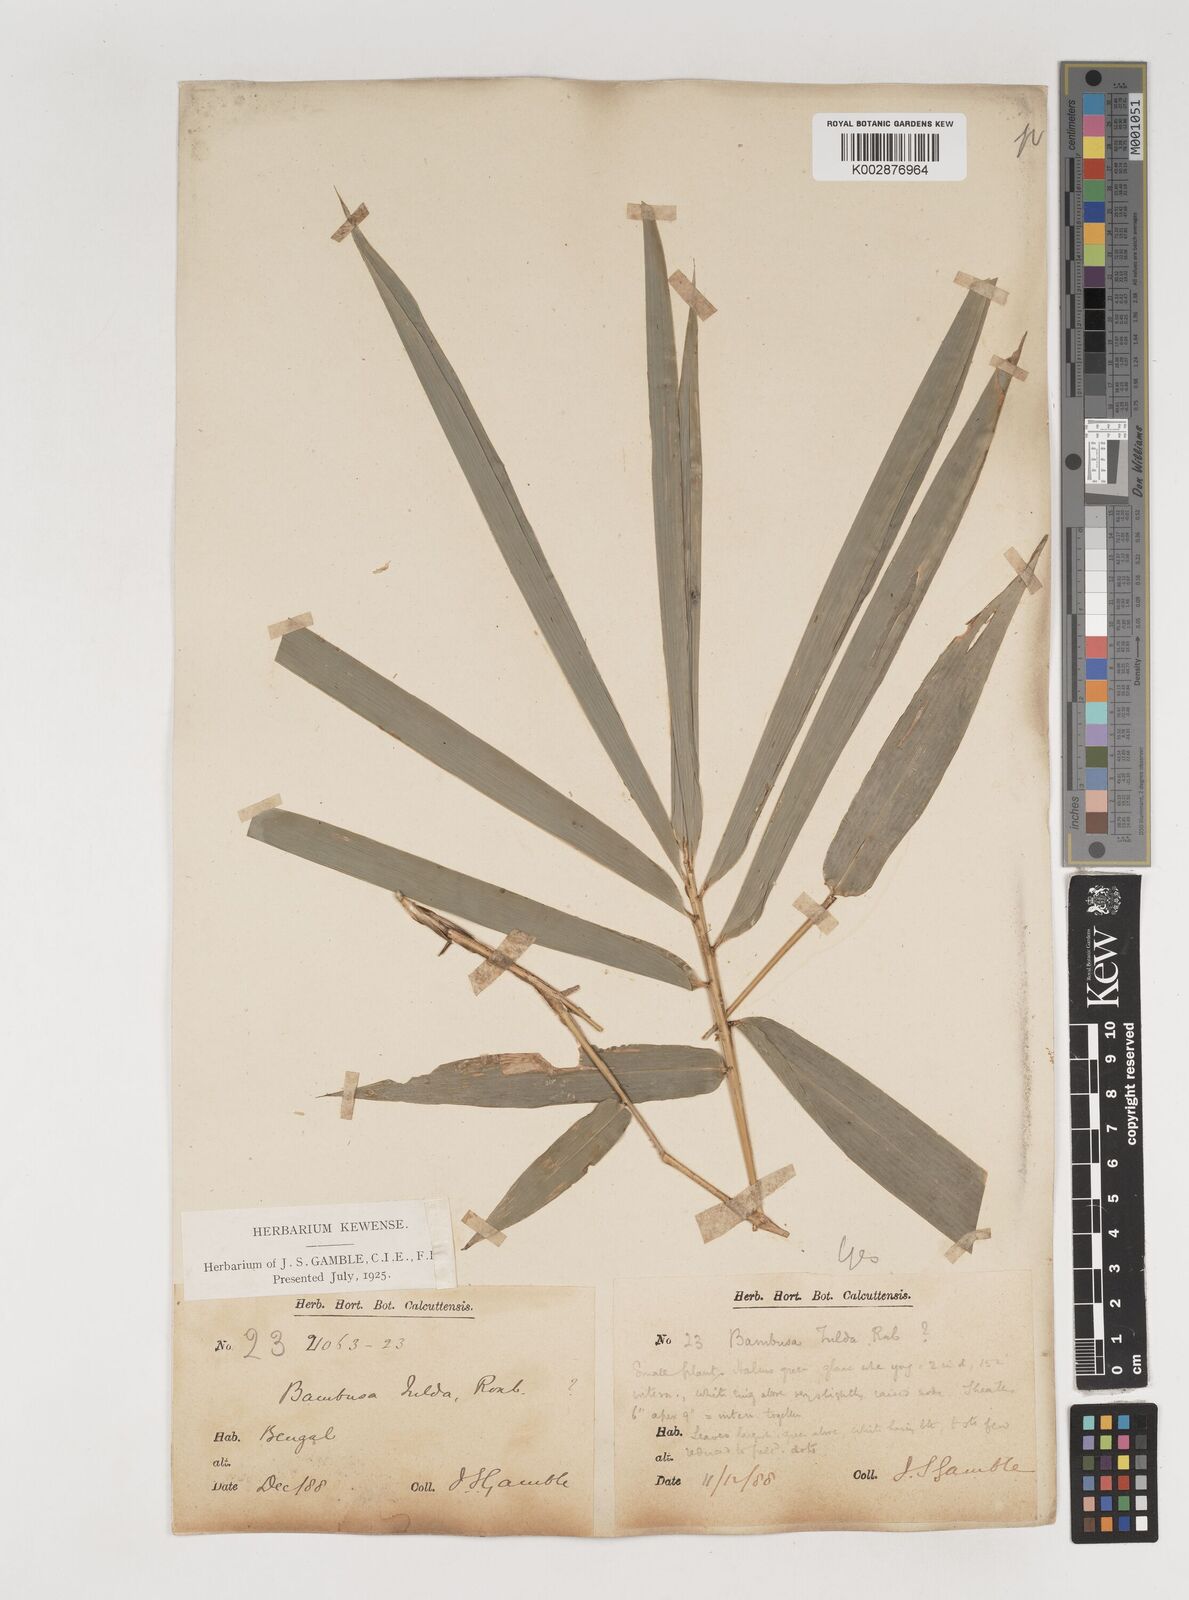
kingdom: Plantae
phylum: Tracheophyta
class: Liliopsida
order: Poales
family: Poaceae
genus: Bambusa
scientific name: Bambusa tulda
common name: Bengal bamboo
